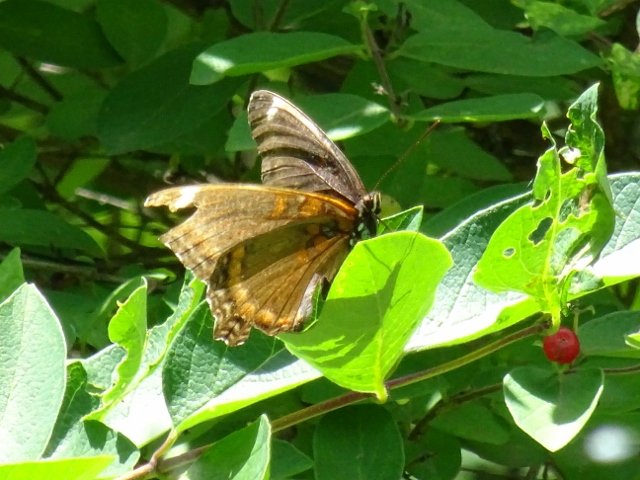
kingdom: Animalia
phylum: Arthropoda
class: Insecta
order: Lepidoptera
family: Nymphalidae
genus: Limenitis
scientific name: Limenitis astyanax
